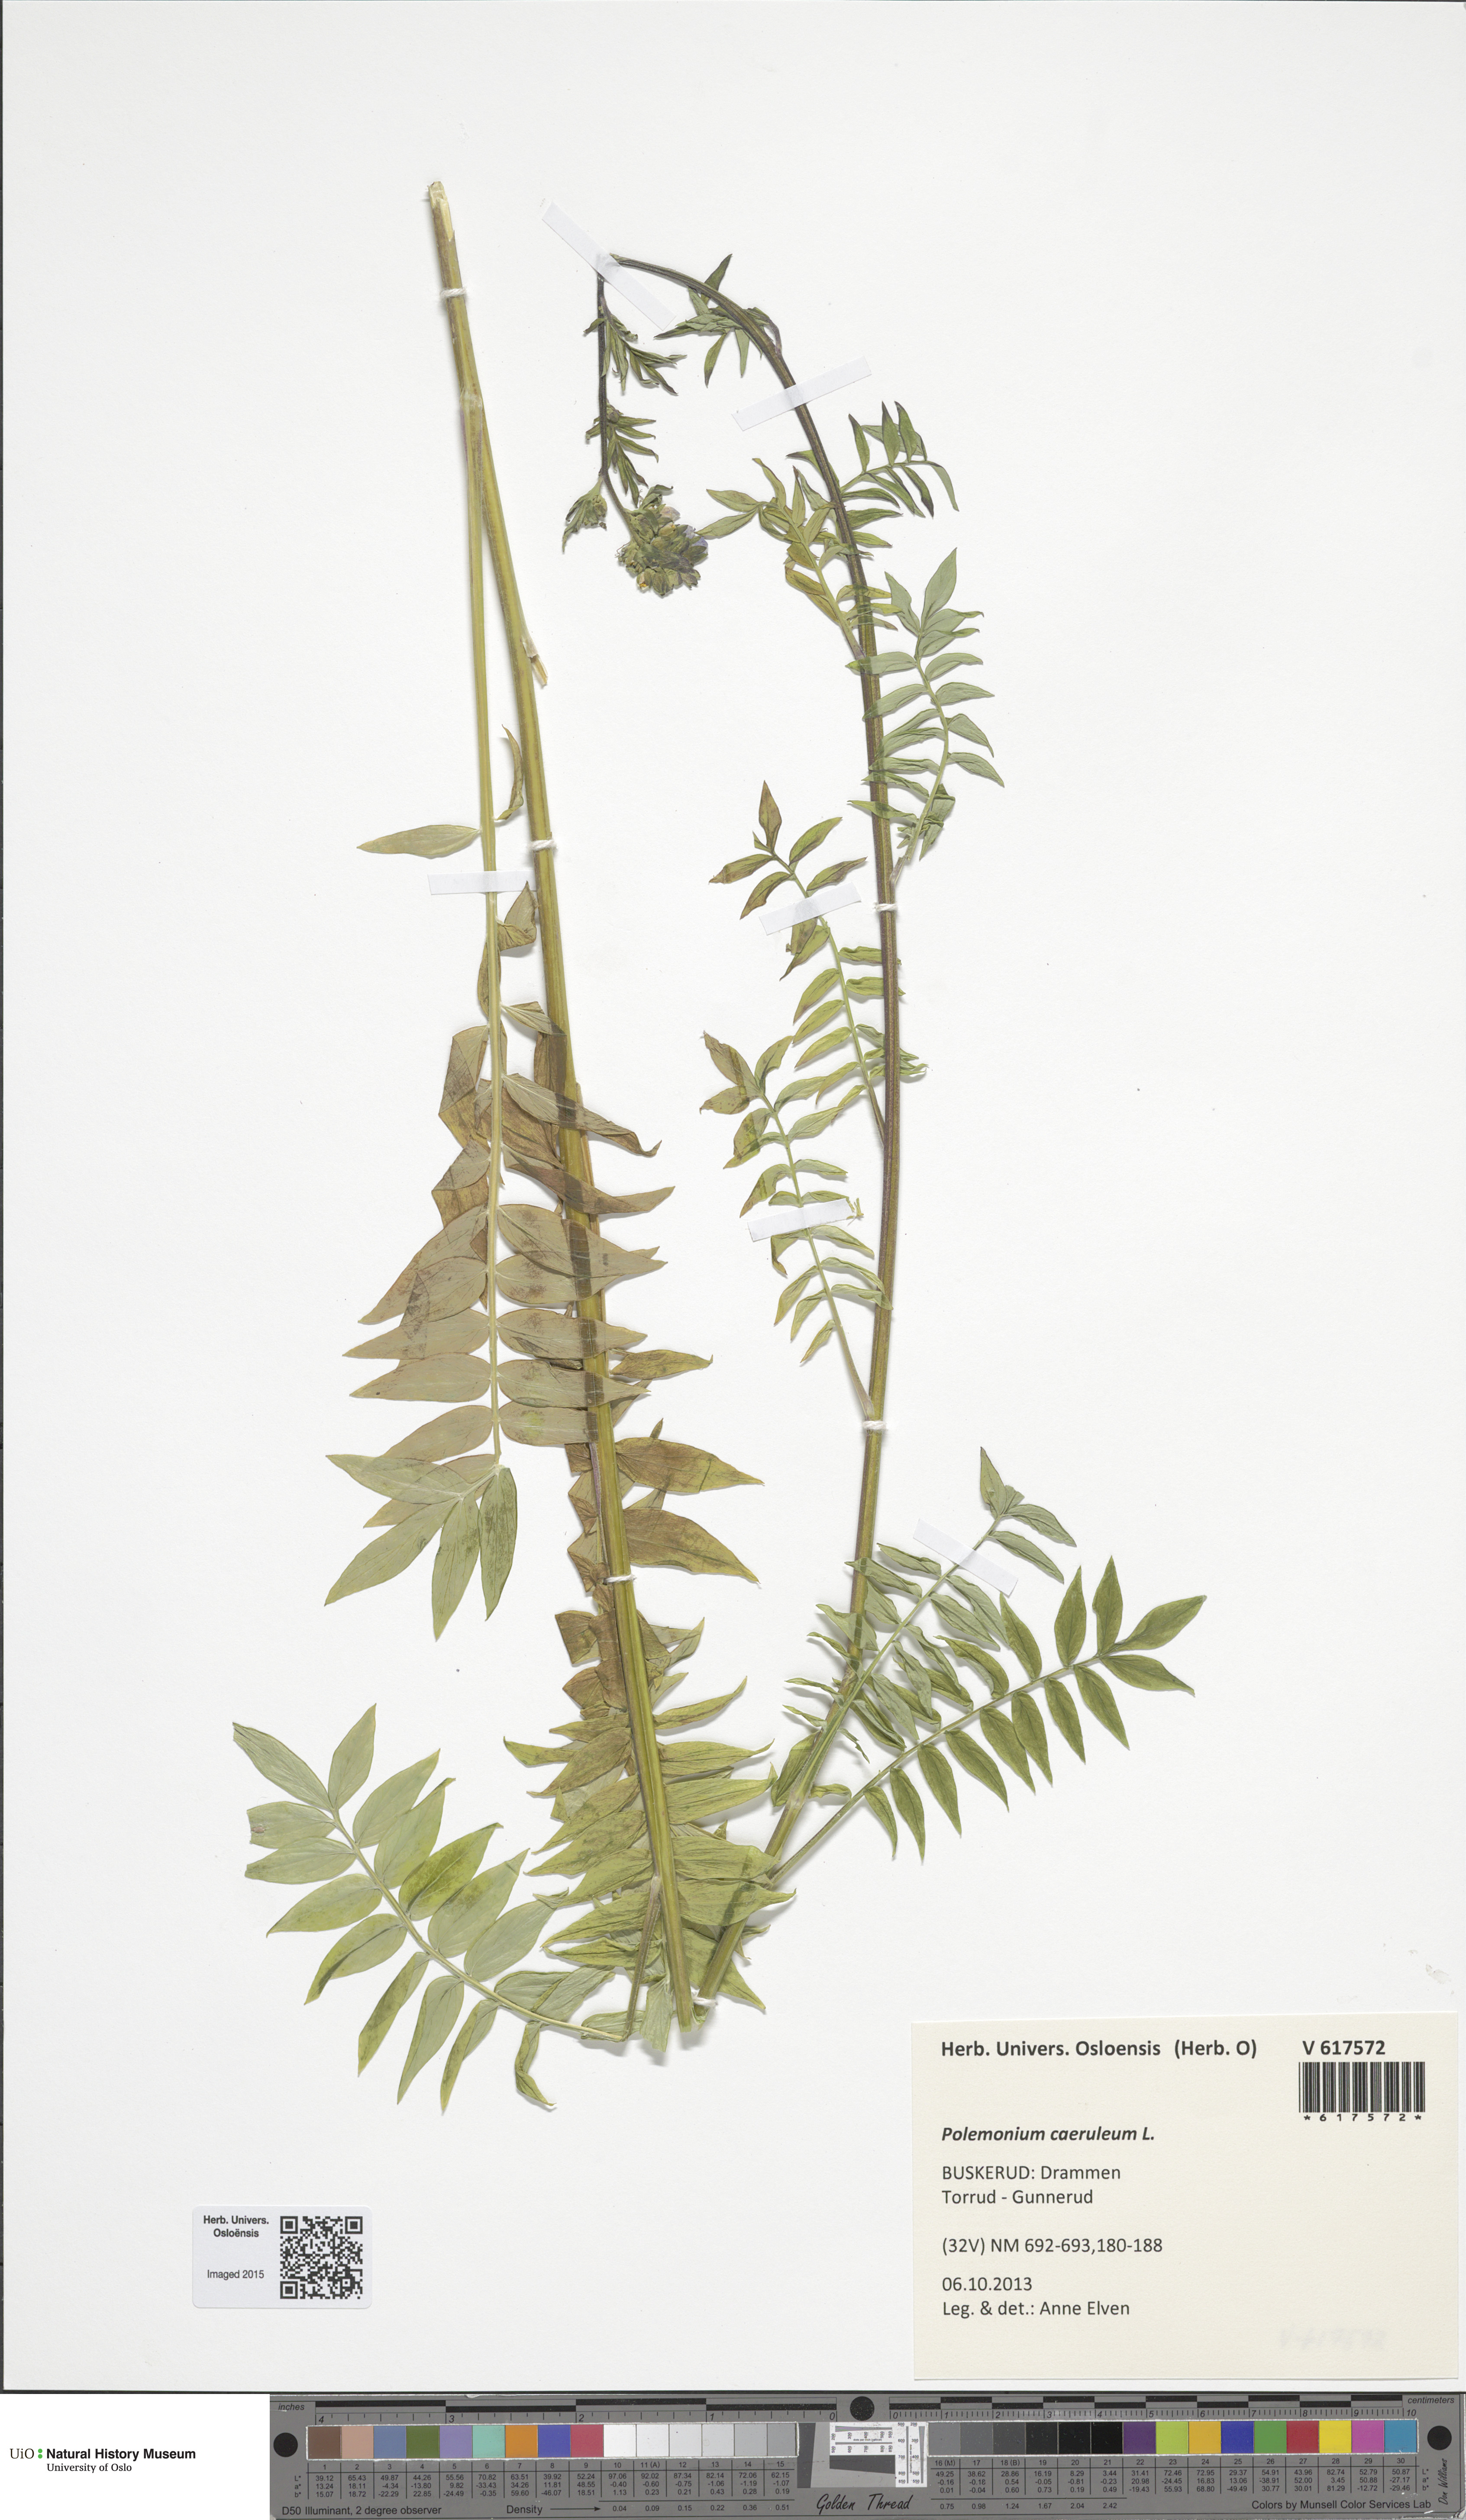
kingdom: Plantae
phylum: Tracheophyta
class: Magnoliopsida
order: Ericales
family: Polemoniaceae
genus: Polemonium
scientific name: Polemonium caeruleum
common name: Jacob's-ladder
